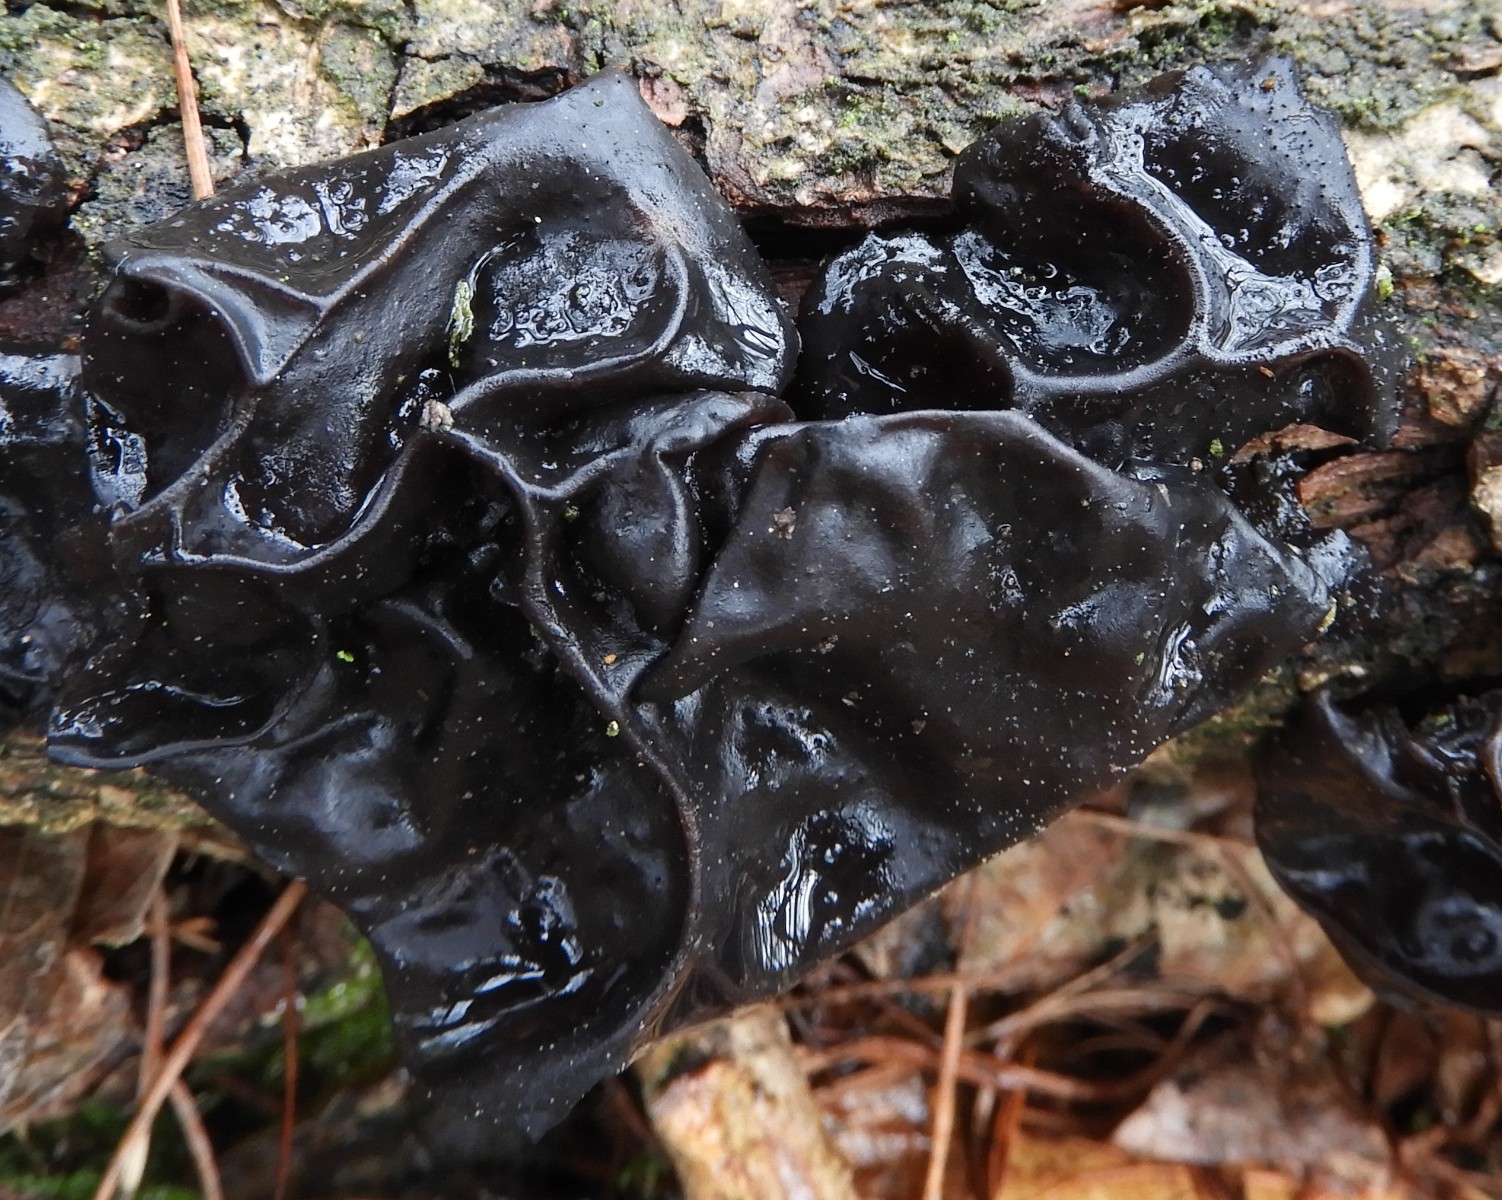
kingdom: Fungi
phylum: Basidiomycota
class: Agaricomycetes
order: Auriculariales
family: Auriculariaceae
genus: Exidia
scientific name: Exidia glandulosa
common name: ege-bævretop
